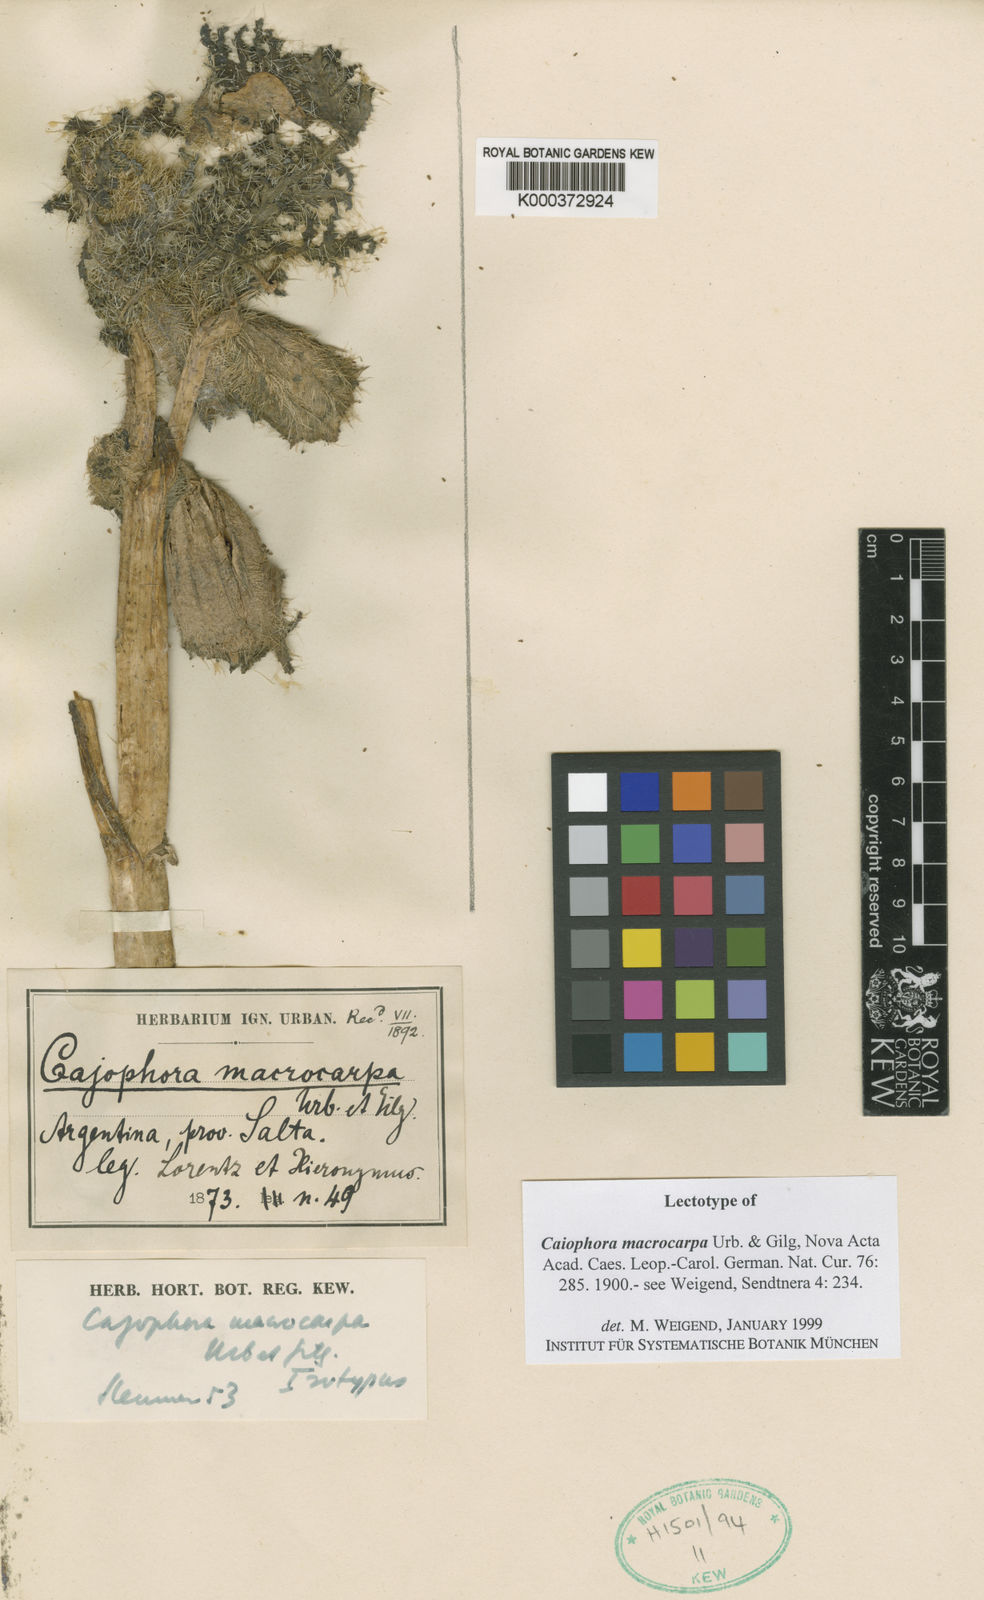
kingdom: Plantae
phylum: Tracheophyta
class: Magnoliopsida
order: Cornales
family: Loasaceae
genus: Caiophora
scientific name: Caiophora chuquitensis
